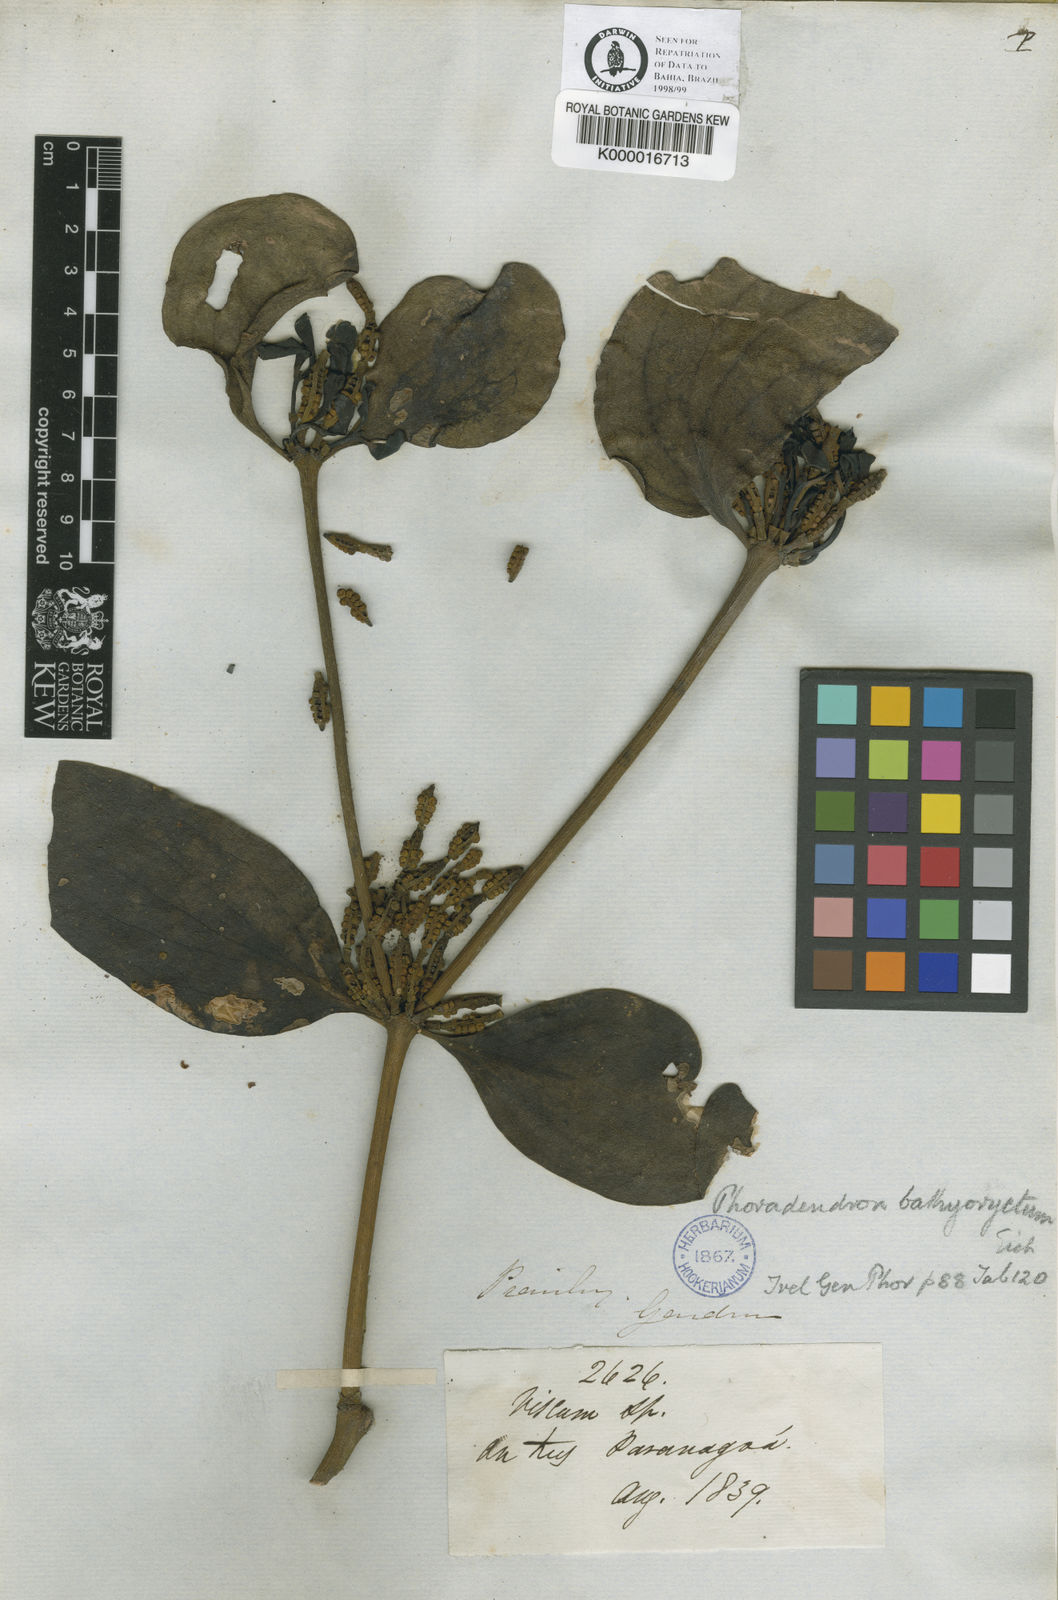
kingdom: Plantae
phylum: Tracheophyta
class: Magnoliopsida
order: Santalales
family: Viscaceae
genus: Phoradendron
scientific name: Phoradendron bathyoryctum
